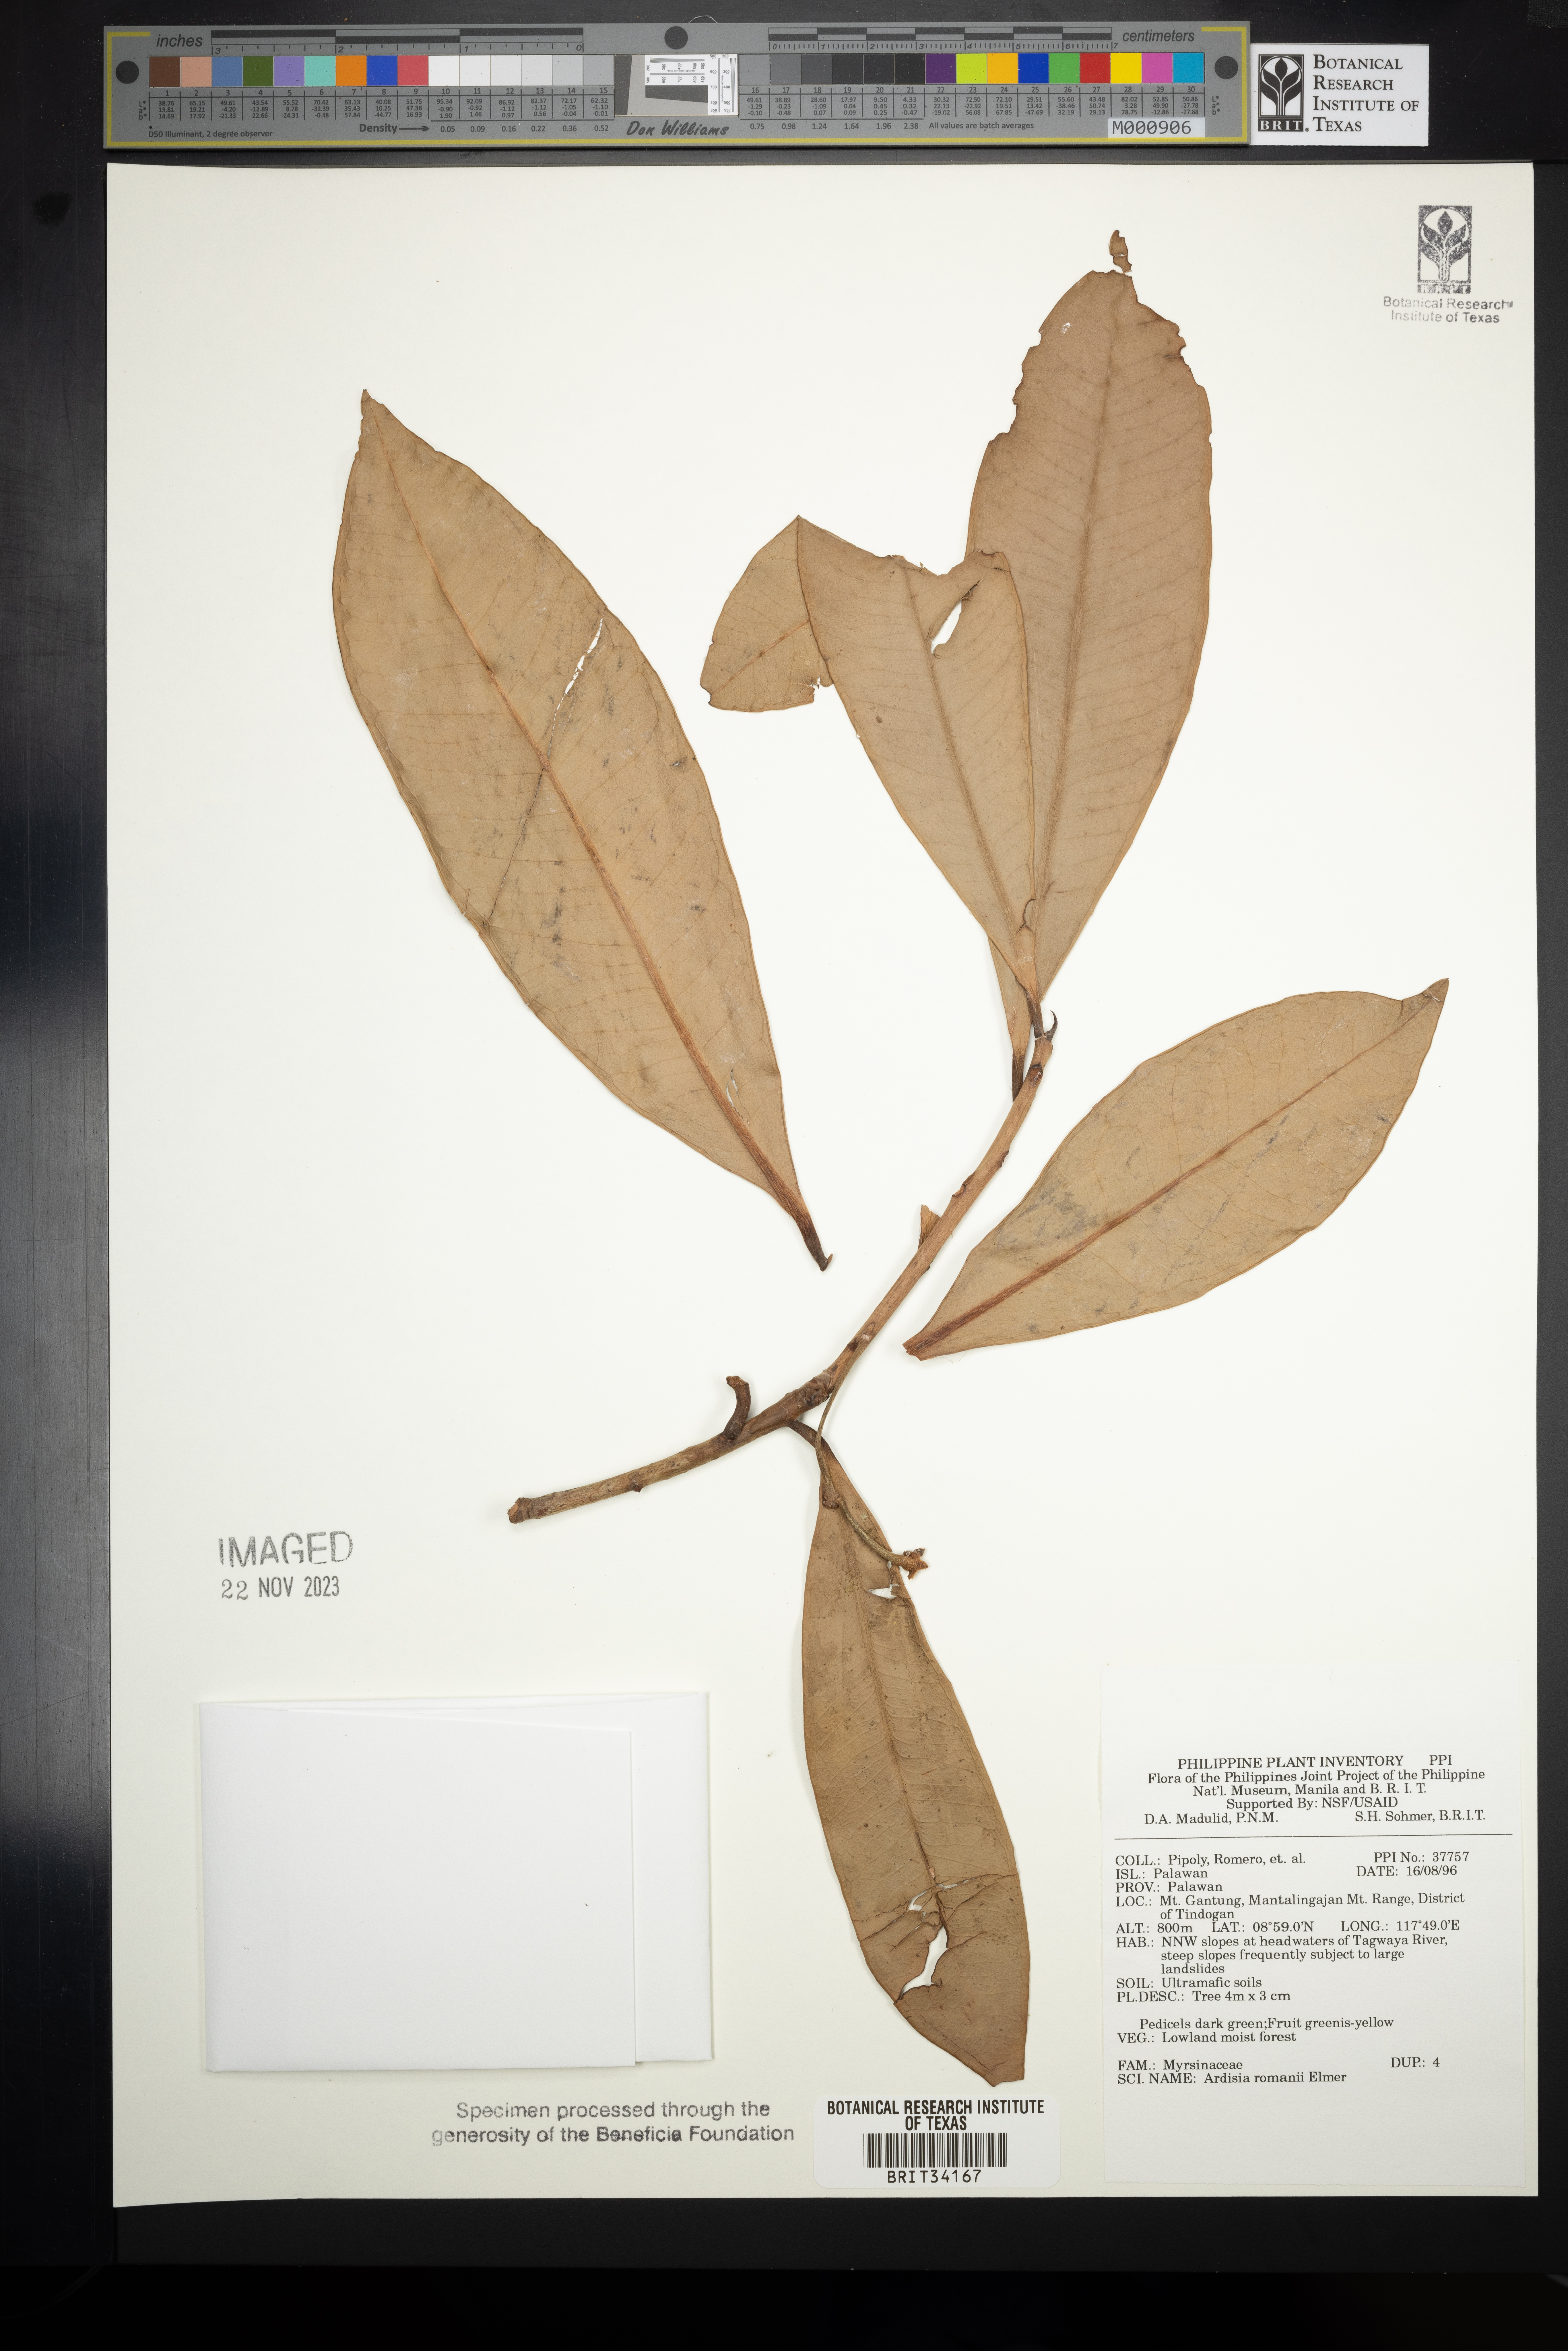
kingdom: Plantae
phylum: Tracheophyta
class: Magnoliopsida
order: Ericales
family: Primulaceae
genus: Ardisia
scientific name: Ardisia romanii
